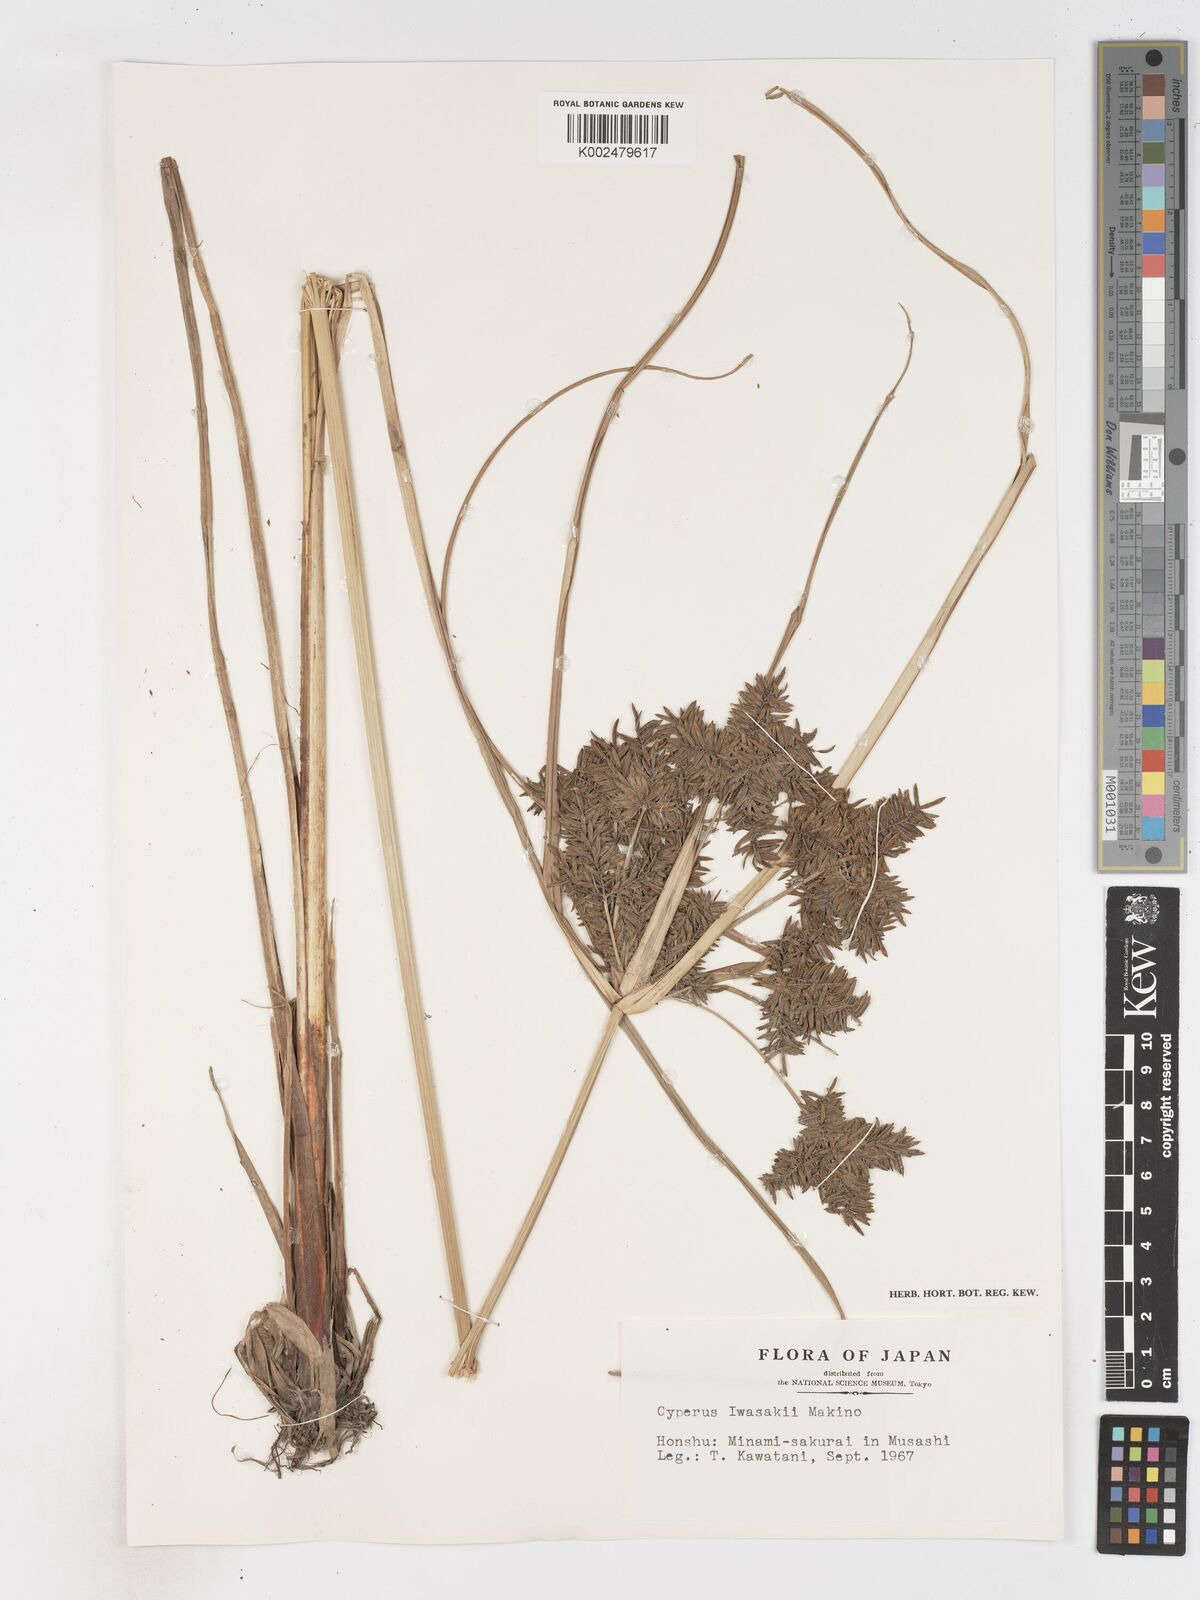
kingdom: Plantae
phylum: Tracheophyta
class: Liliopsida
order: Poales
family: Cyperaceae
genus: Cyperus
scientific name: Cyperus exaltatus
